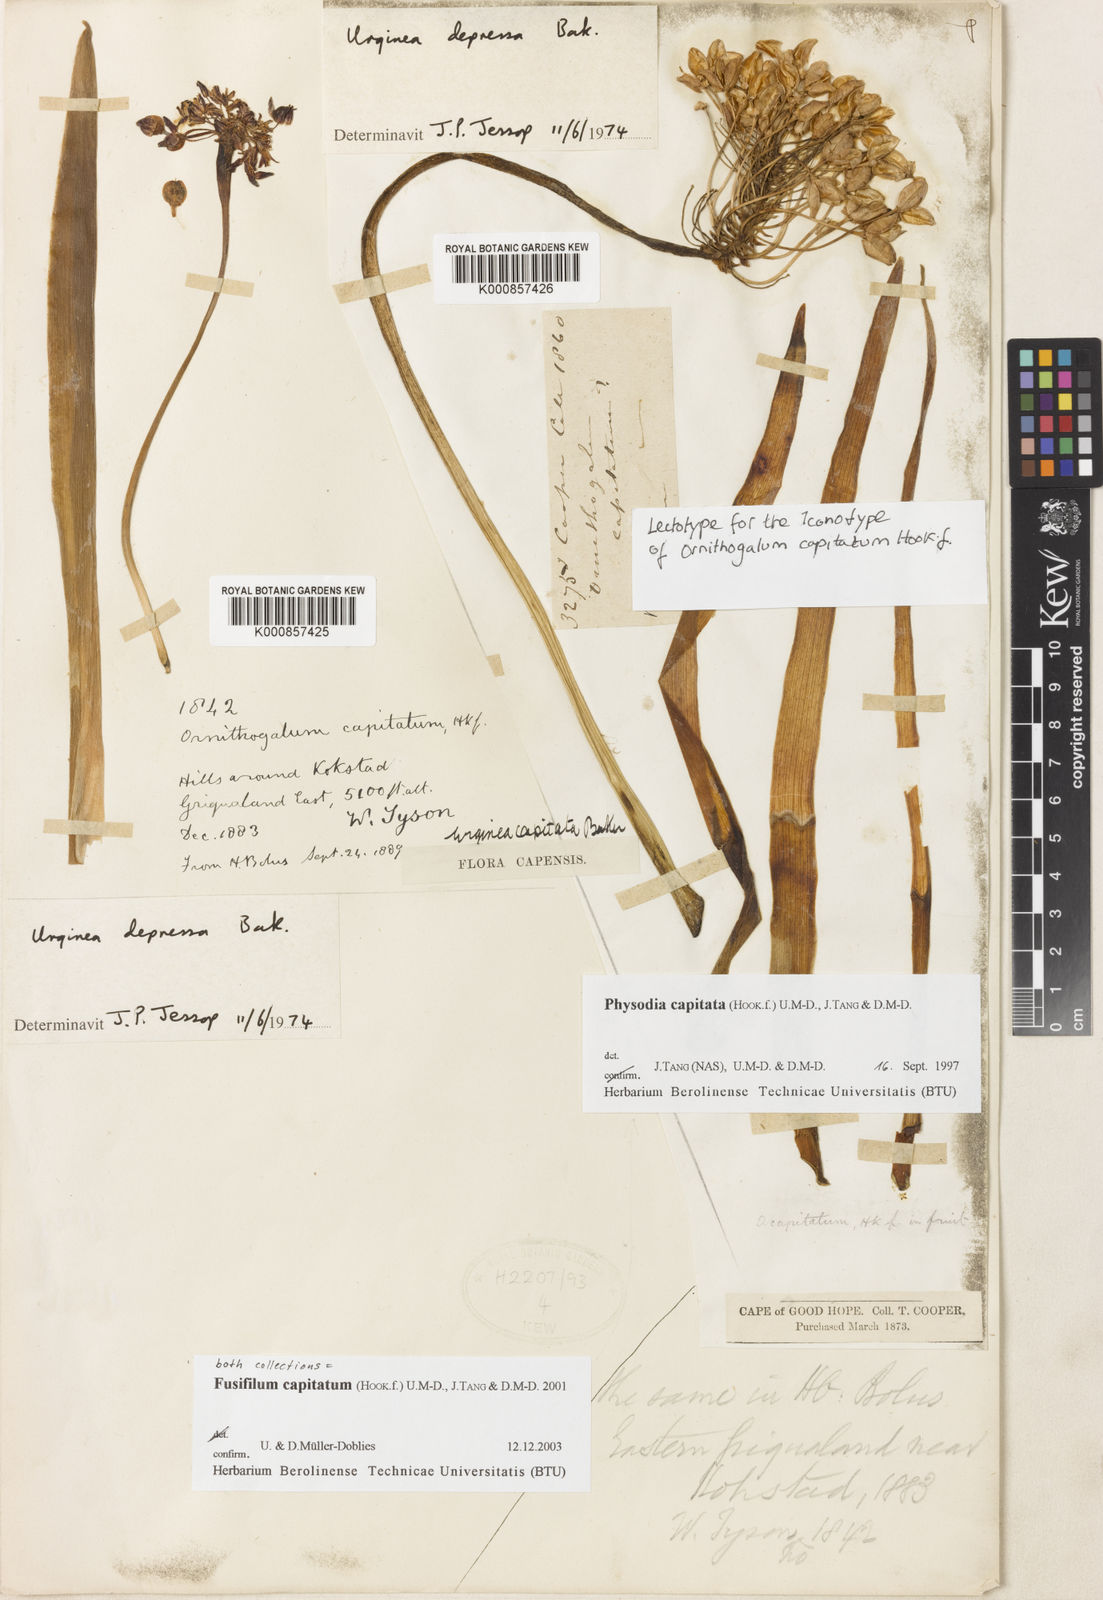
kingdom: Plantae
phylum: Tracheophyta
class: Liliopsida
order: Asparagales
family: Asparagaceae
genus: Fusifilum
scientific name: Fusifilum depressum
